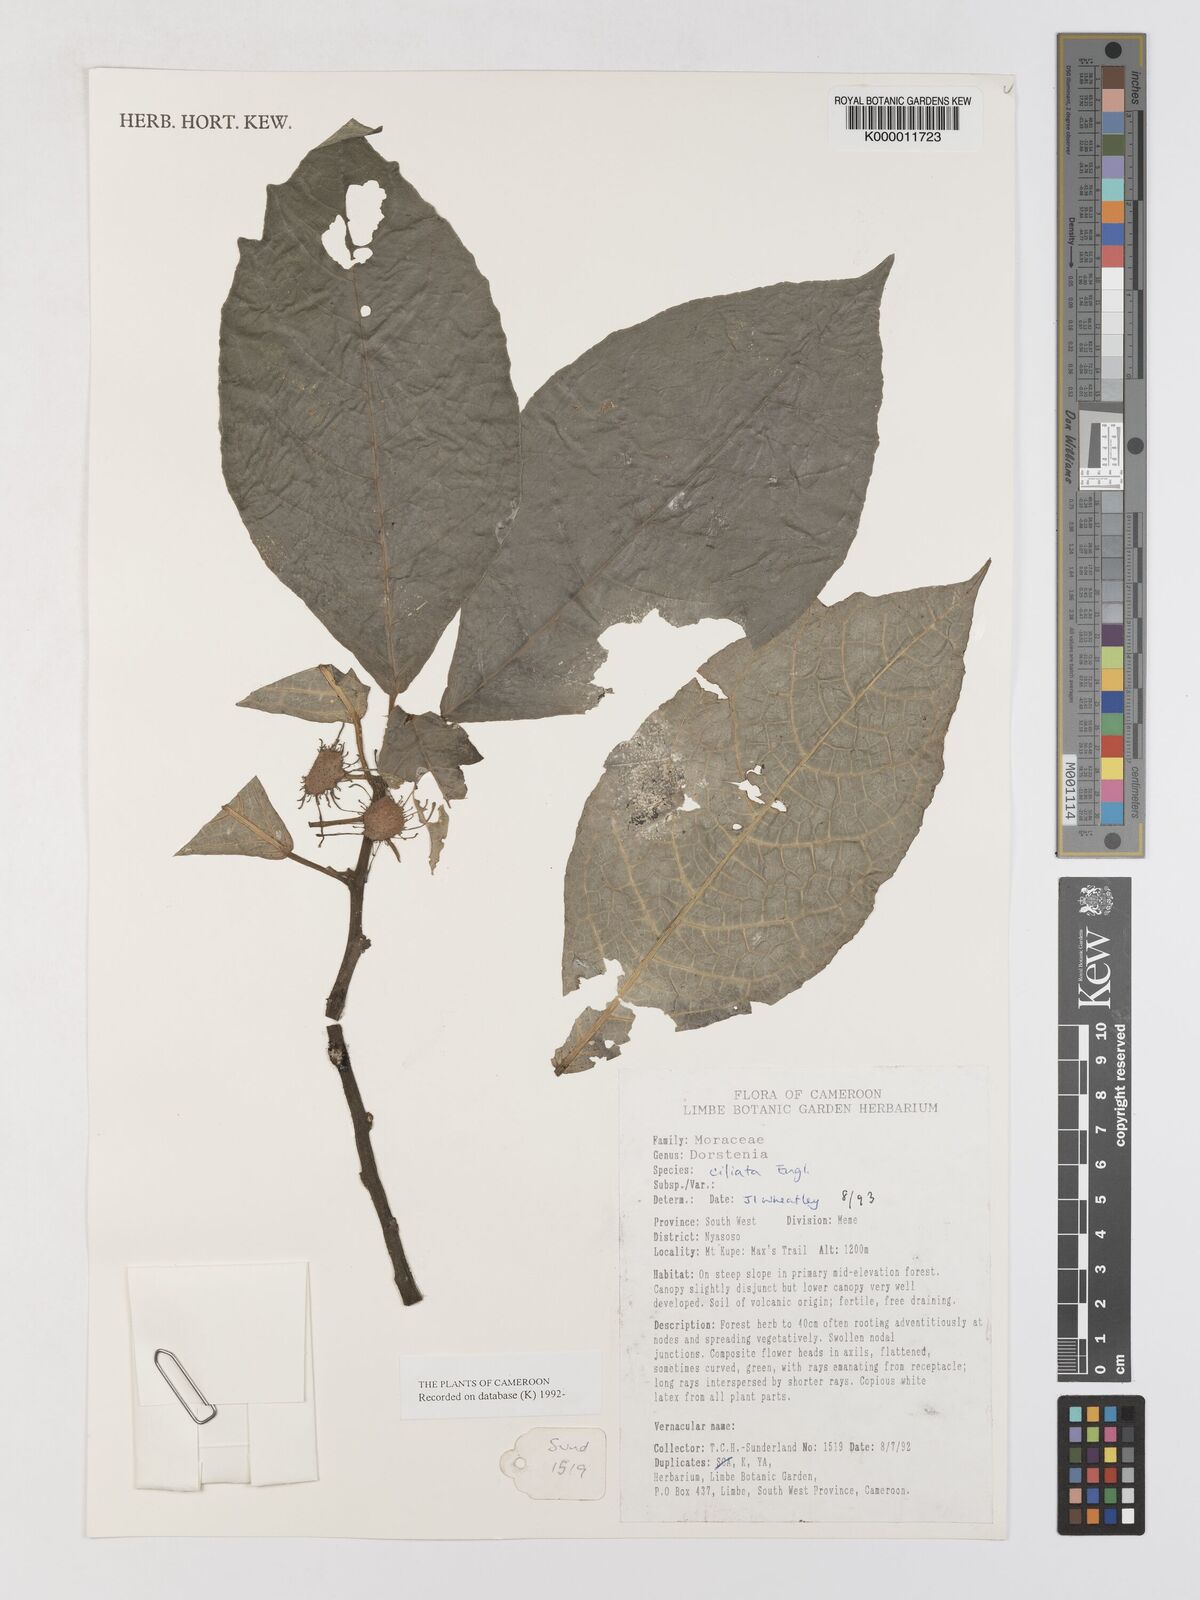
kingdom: Plantae
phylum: Tracheophyta
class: Magnoliopsida
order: Rosales
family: Moraceae
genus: Dorstenia
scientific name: Dorstenia ciliata
